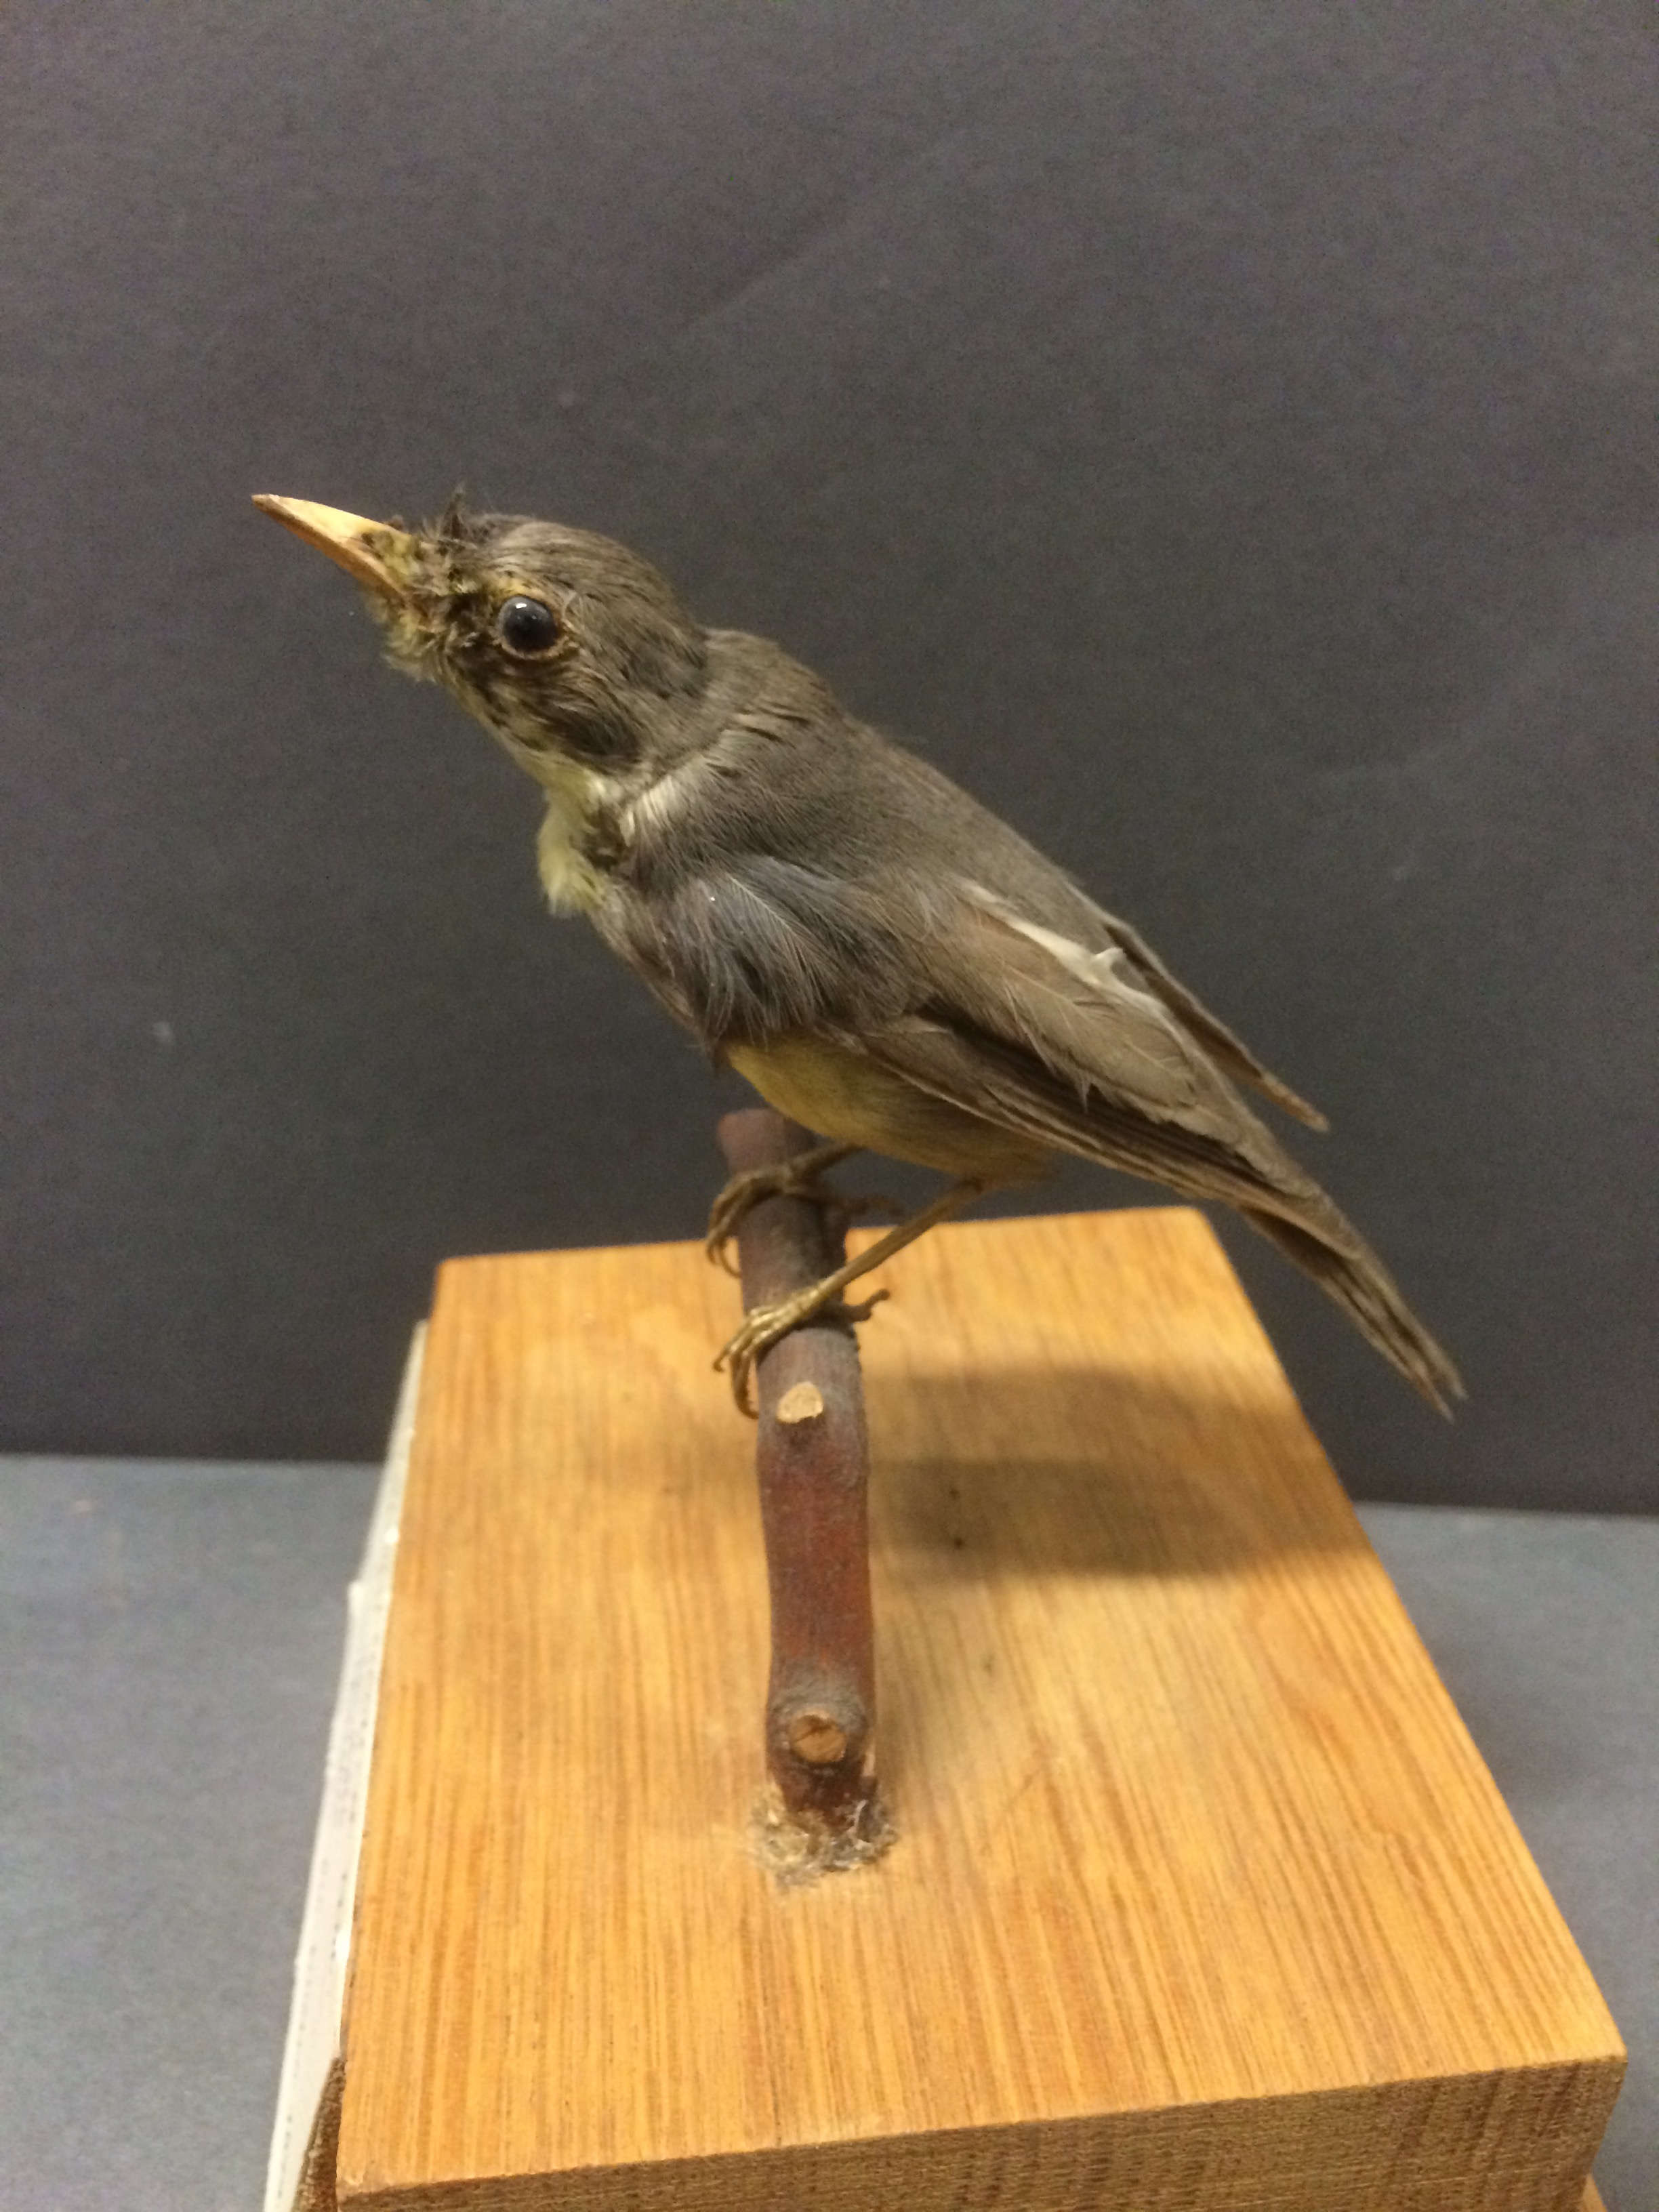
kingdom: Animalia
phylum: Chordata
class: Aves
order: Passeriformes
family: Parulidae
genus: Cardellina
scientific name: Cardellina canadensis
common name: Canada warbler
